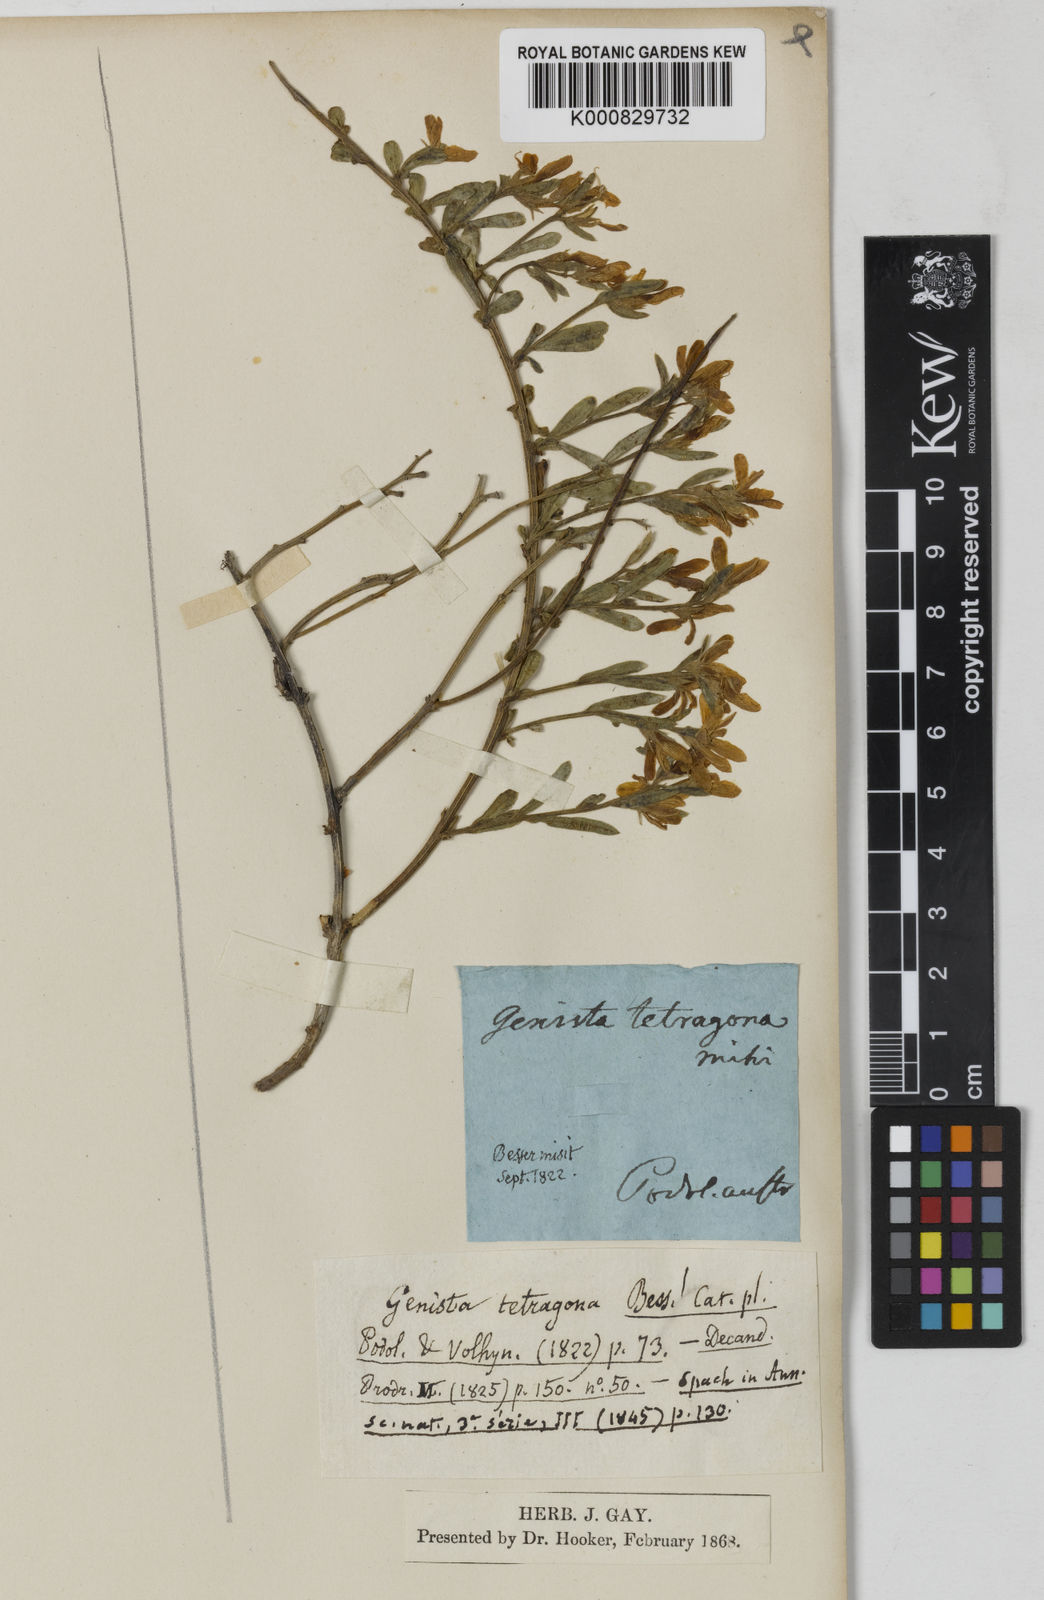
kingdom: Plantae
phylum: Tracheophyta
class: Magnoliopsida
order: Fabales
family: Fabaceae
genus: Genista
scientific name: Genista tinctoria
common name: Dyer's greenweed
